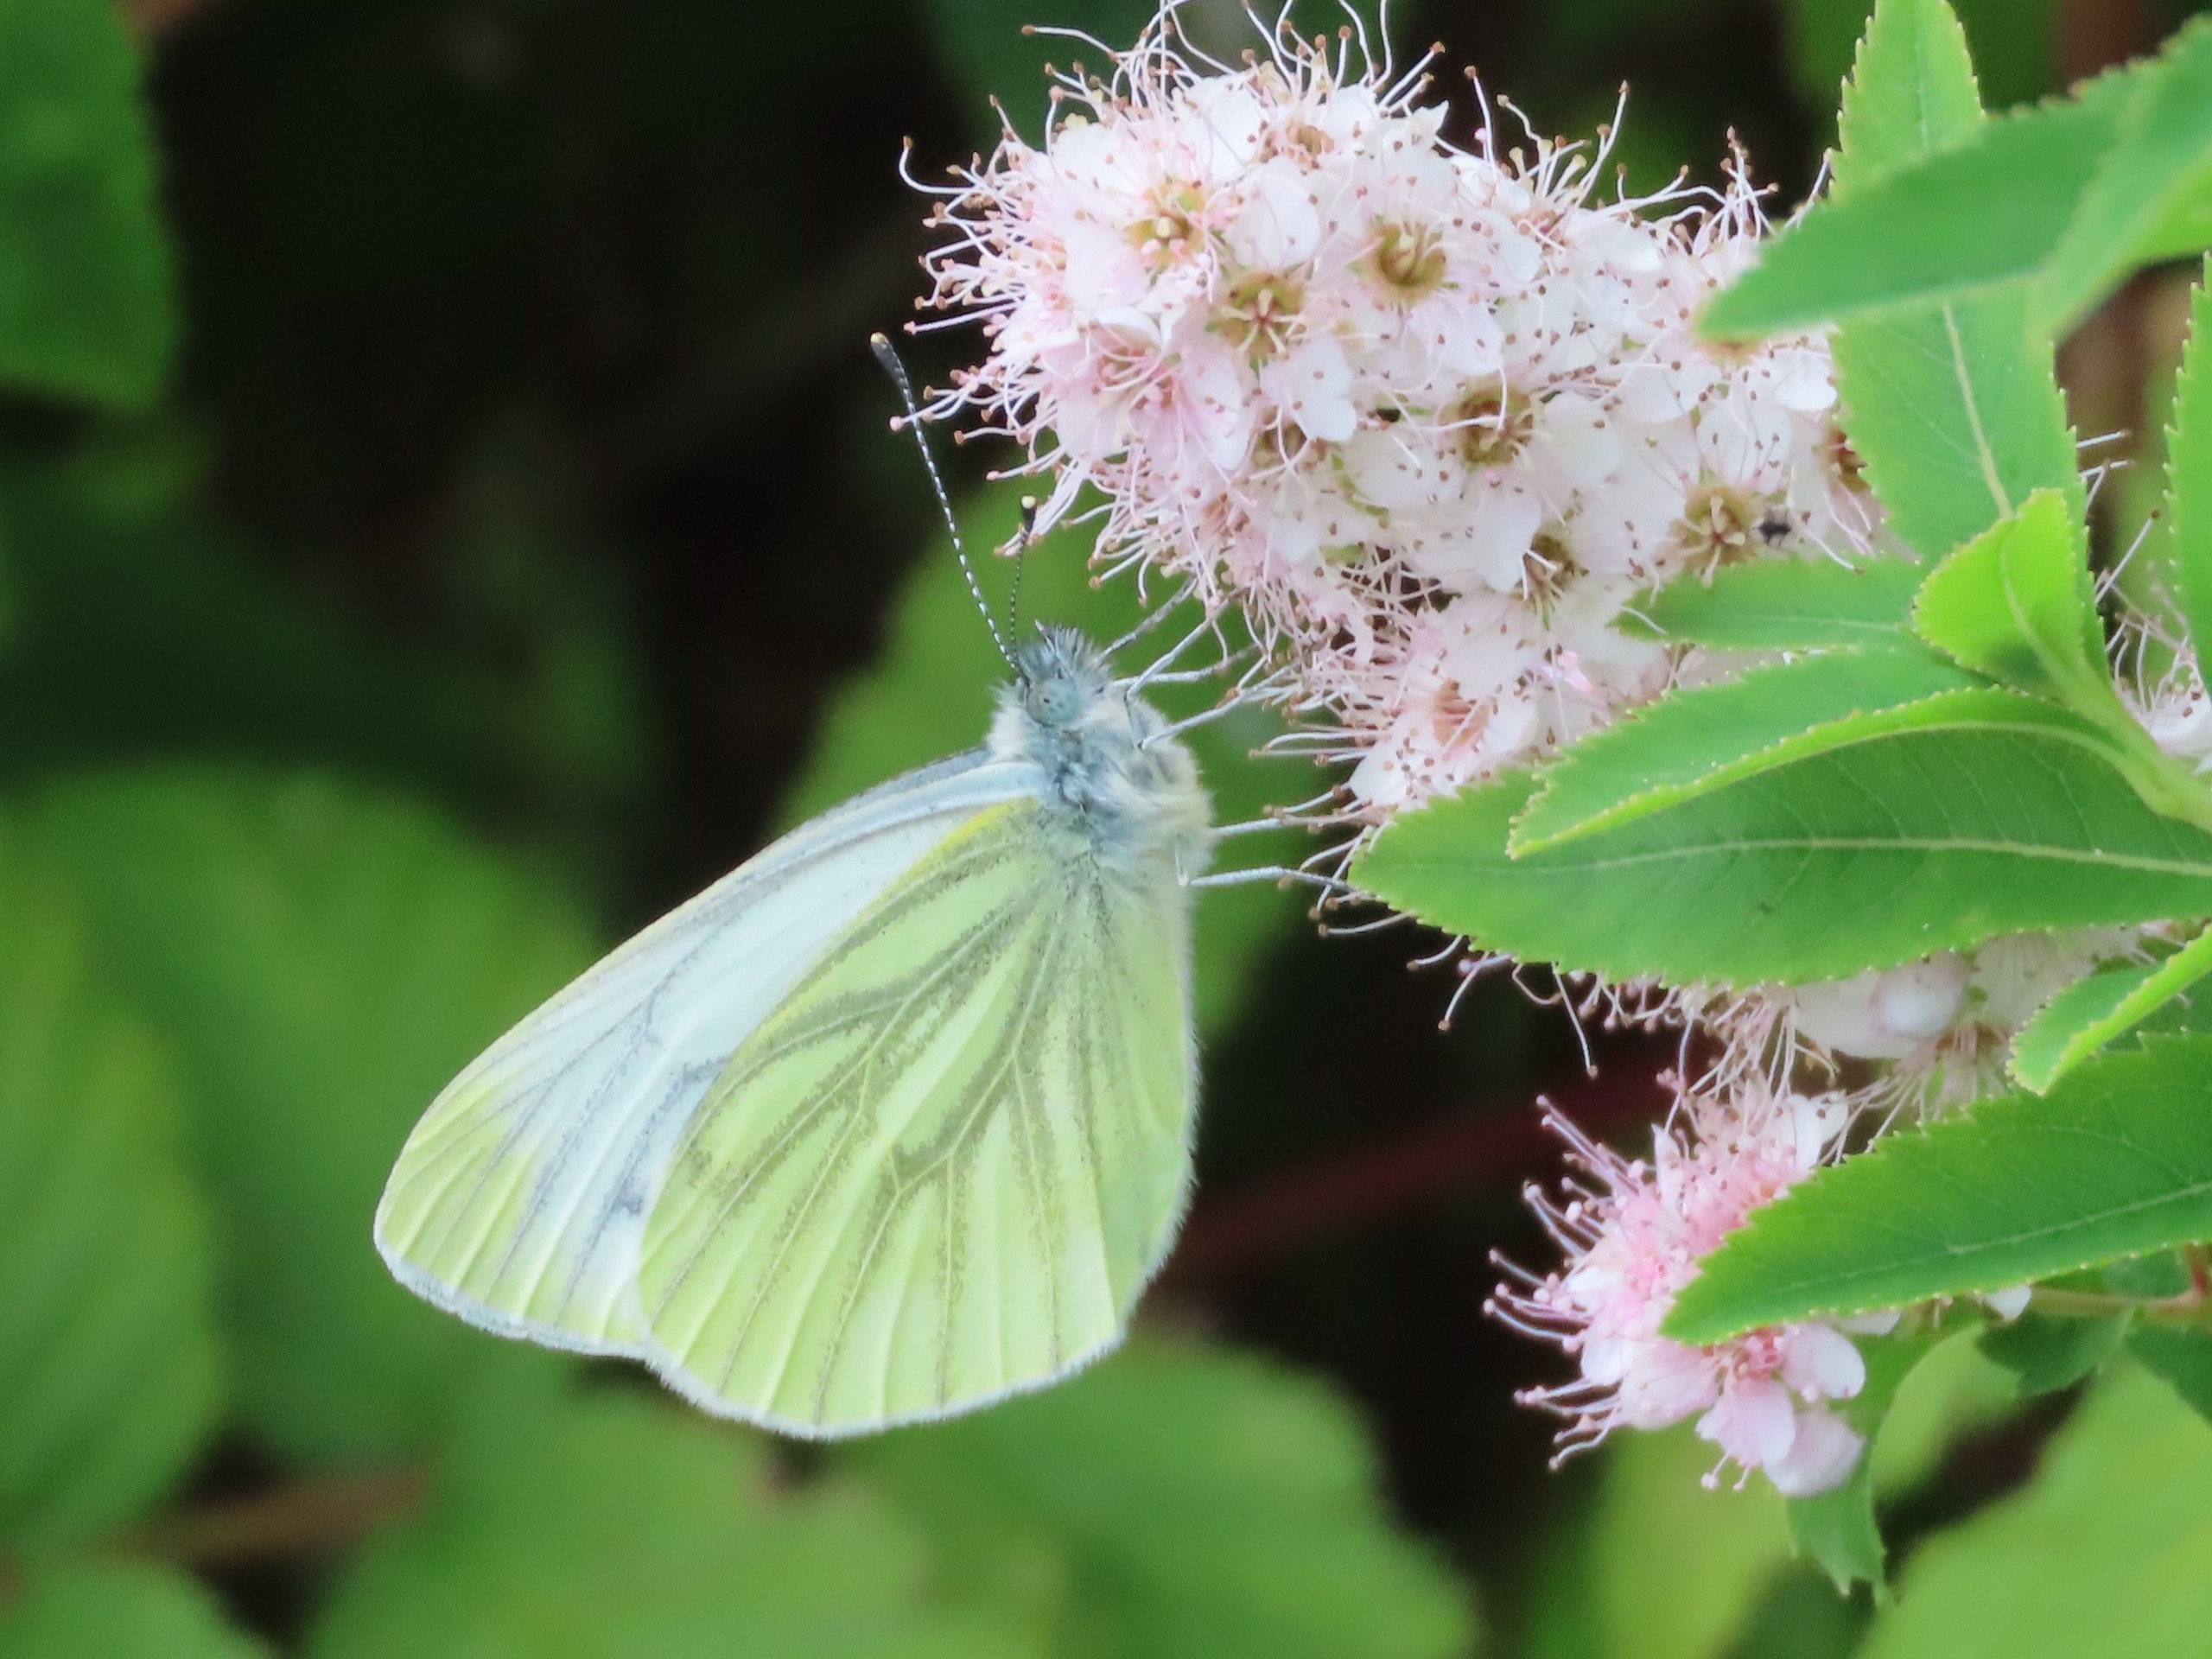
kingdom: Animalia
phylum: Arthropoda
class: Insecta
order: Lepidoptera
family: Pieridae
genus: Pieris
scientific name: Pieris napi
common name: Grønåret kålsommerfugl
